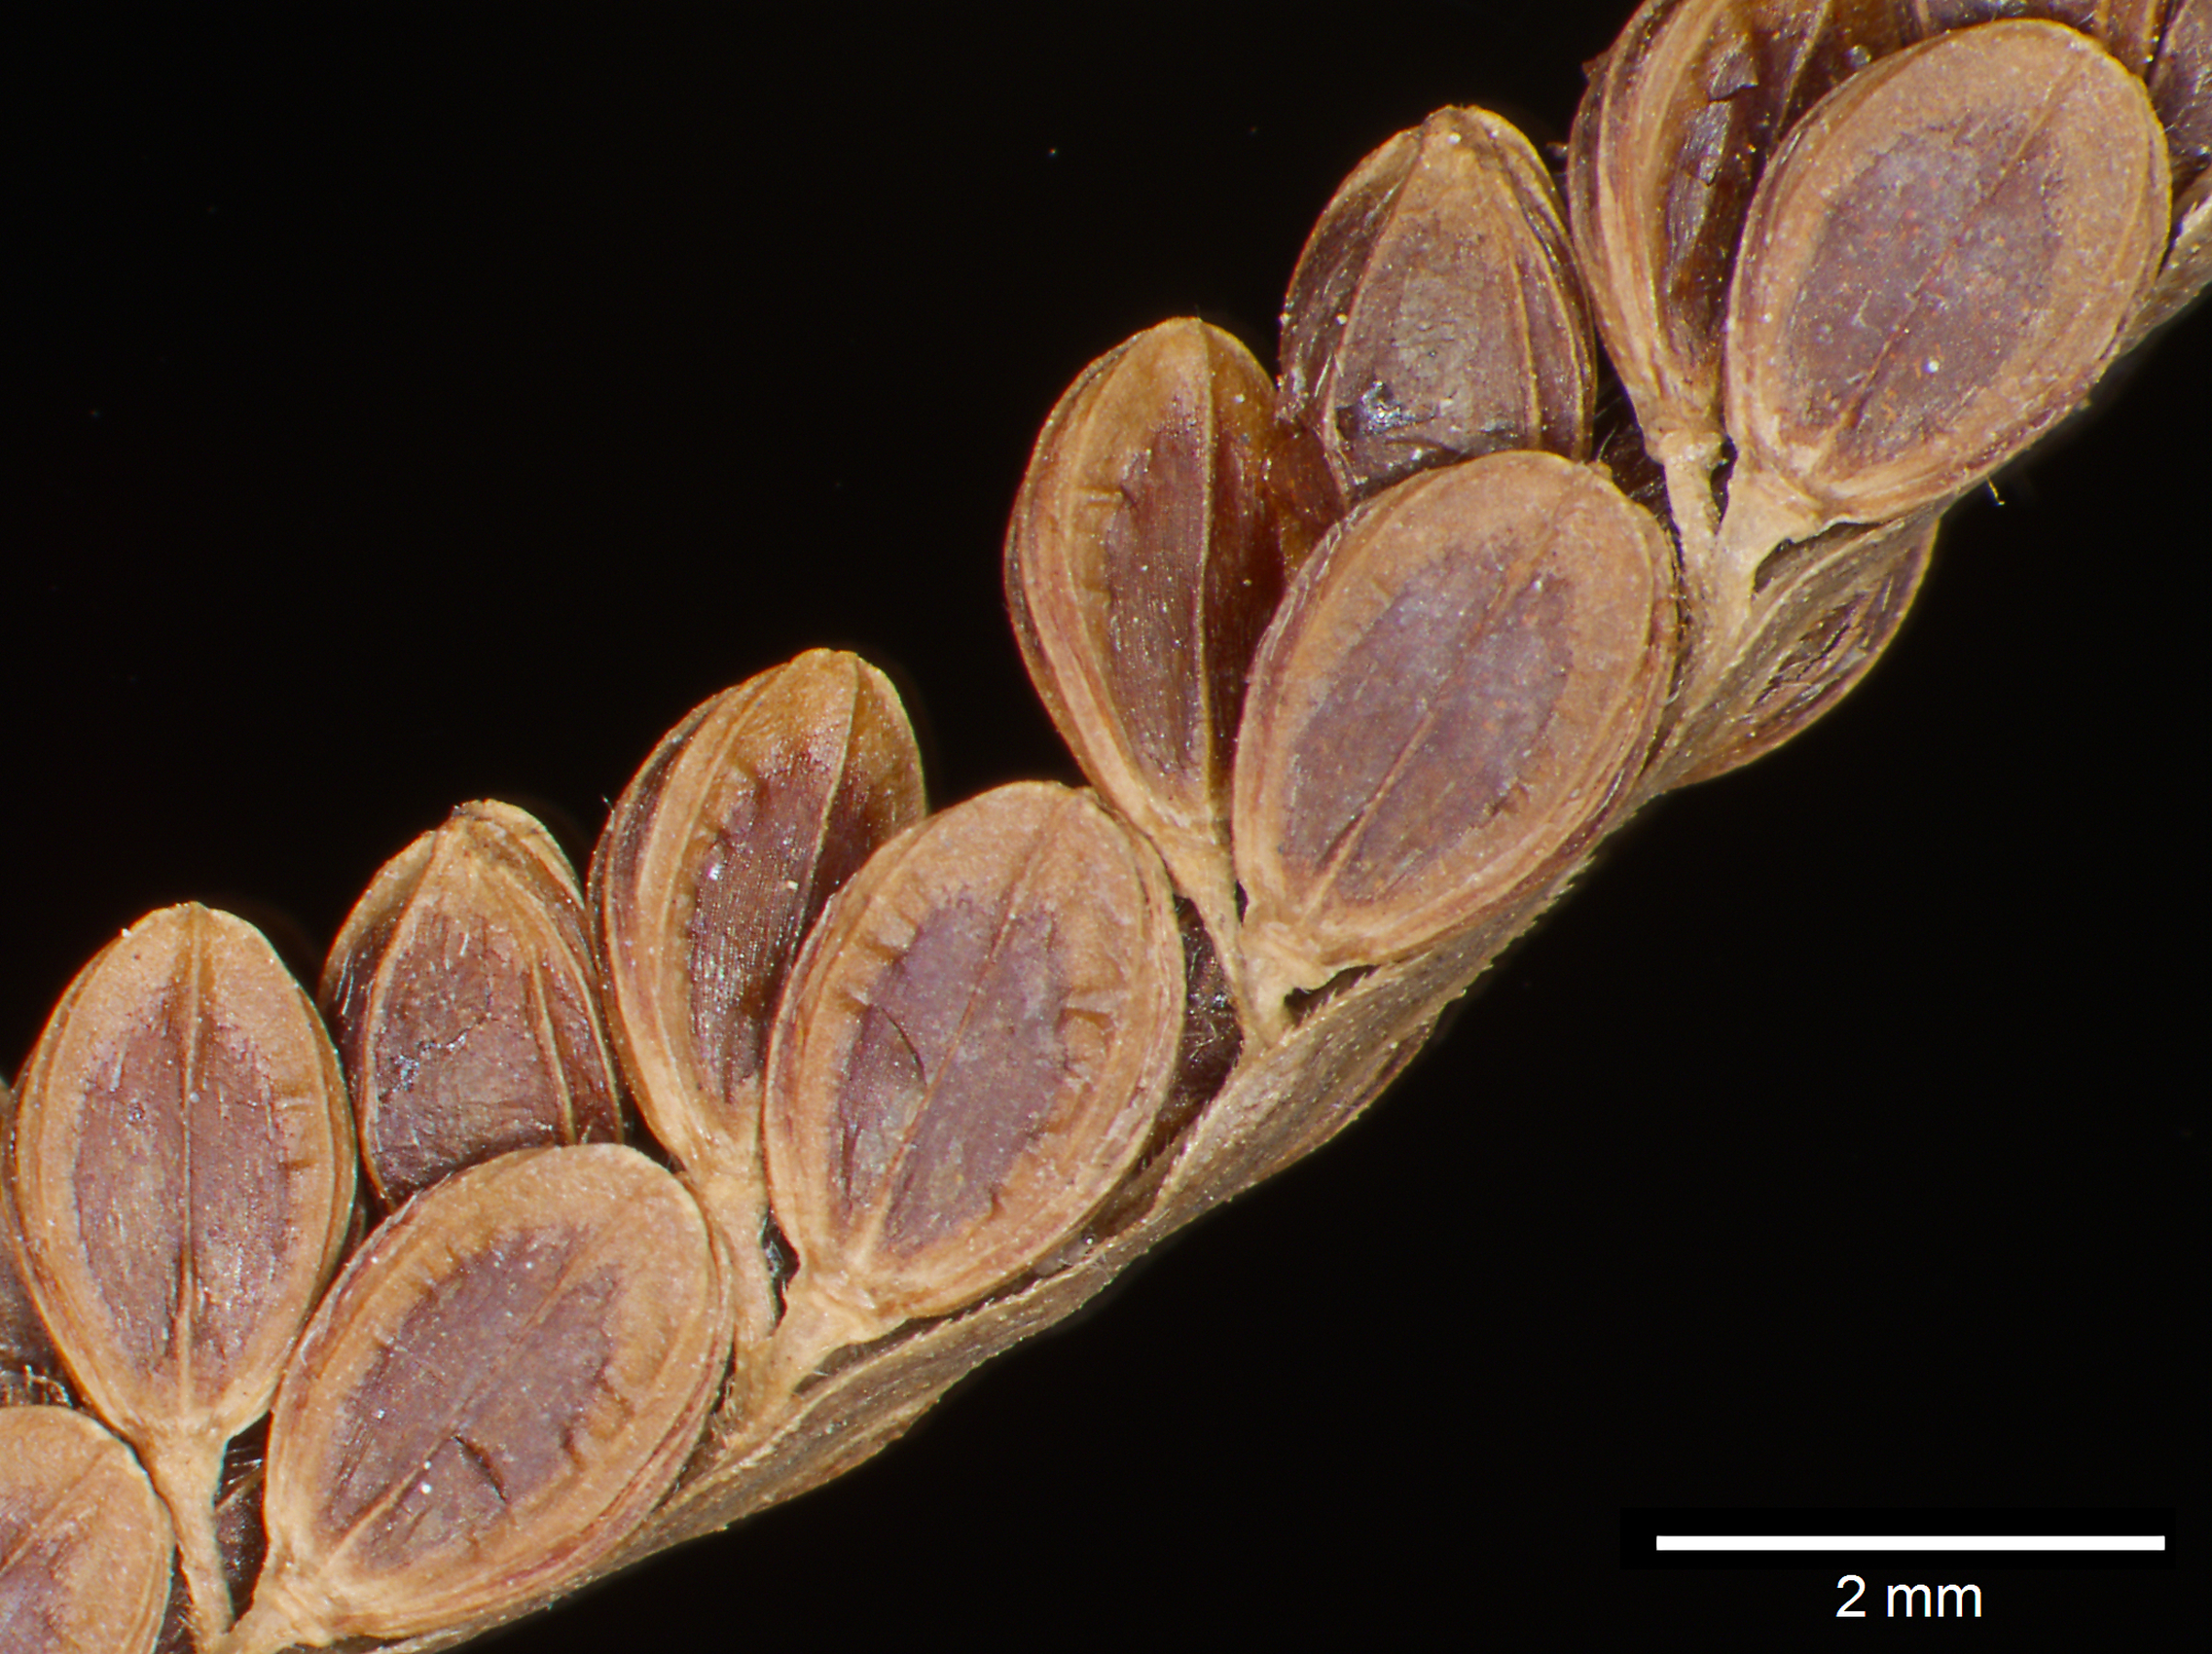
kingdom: Plantae
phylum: Tracheophyta
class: Liliopsida
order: Poales
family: Poaceae
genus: Paspalum
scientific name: Paspalum plicatulum
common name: Top paspalum
